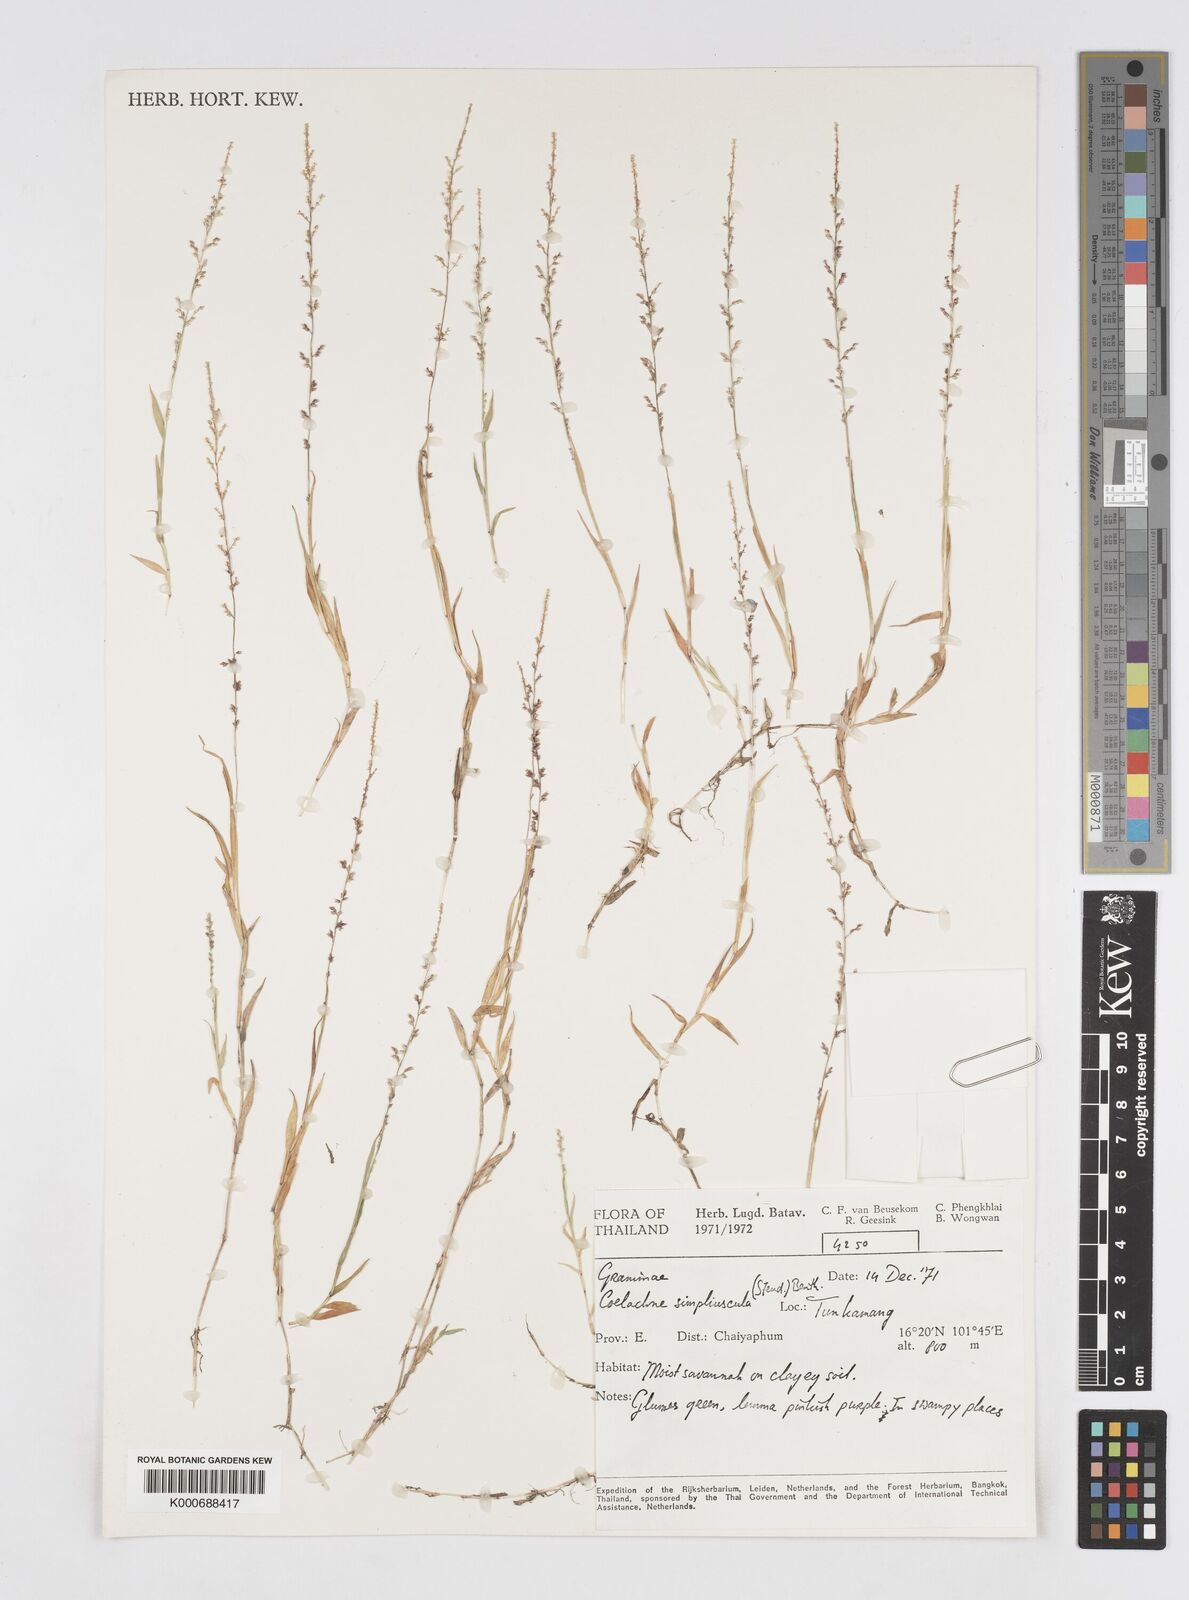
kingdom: Plantae
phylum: Tracheophyta
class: Liliopsida
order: Poales
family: Poaceae
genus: Coelachne
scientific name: Coelachne simpliciuscula
